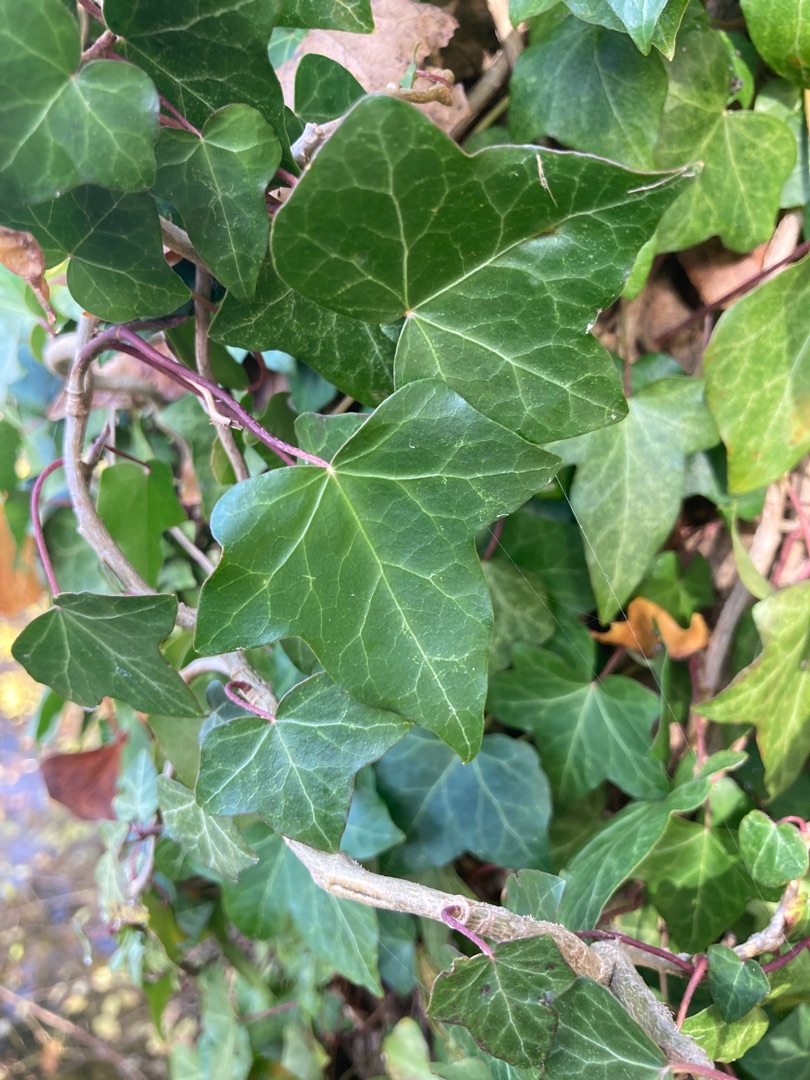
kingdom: Plantae
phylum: Tracheophyta
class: Magnoliopsida
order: Apiales
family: Araliaceae
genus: Hedera
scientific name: Hedera hibernica
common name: Irsk vedbend
